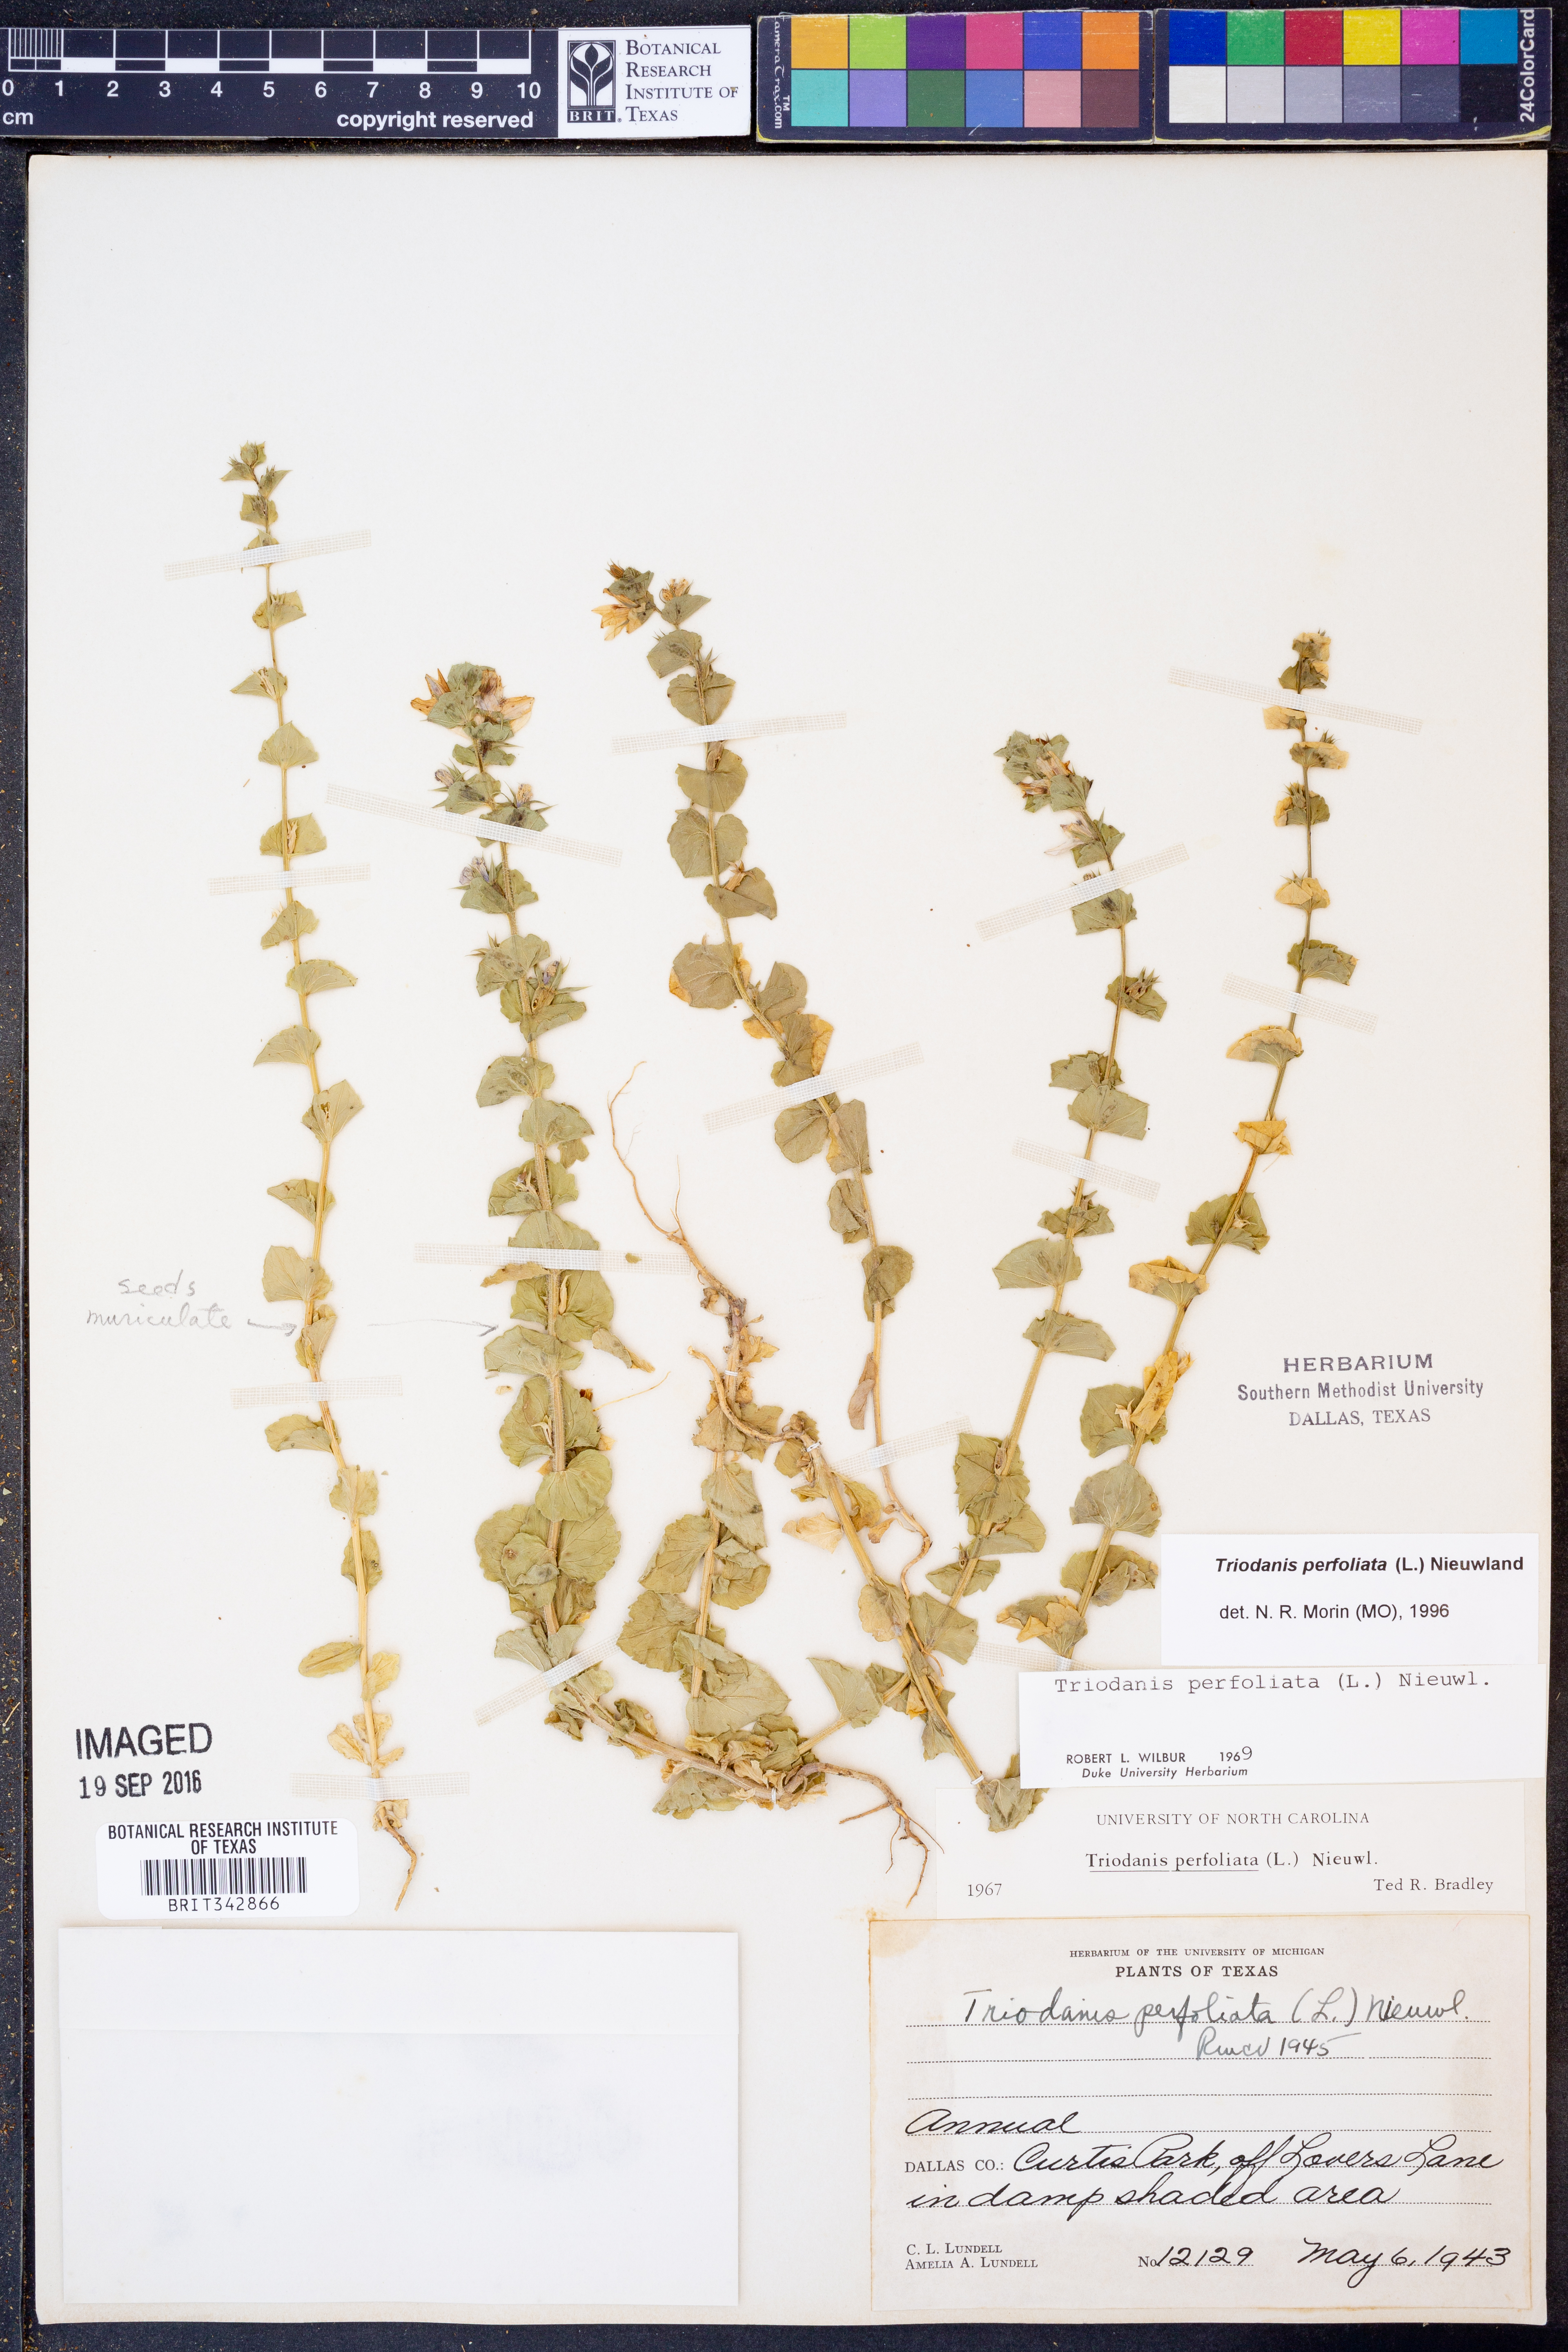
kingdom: Plantae
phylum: Tracheophyta
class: Magnoliopsida
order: Asterales
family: Campanulaceae
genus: Triodanis
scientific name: Triodanis perfoliata
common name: Clasping venus' looking-glass
